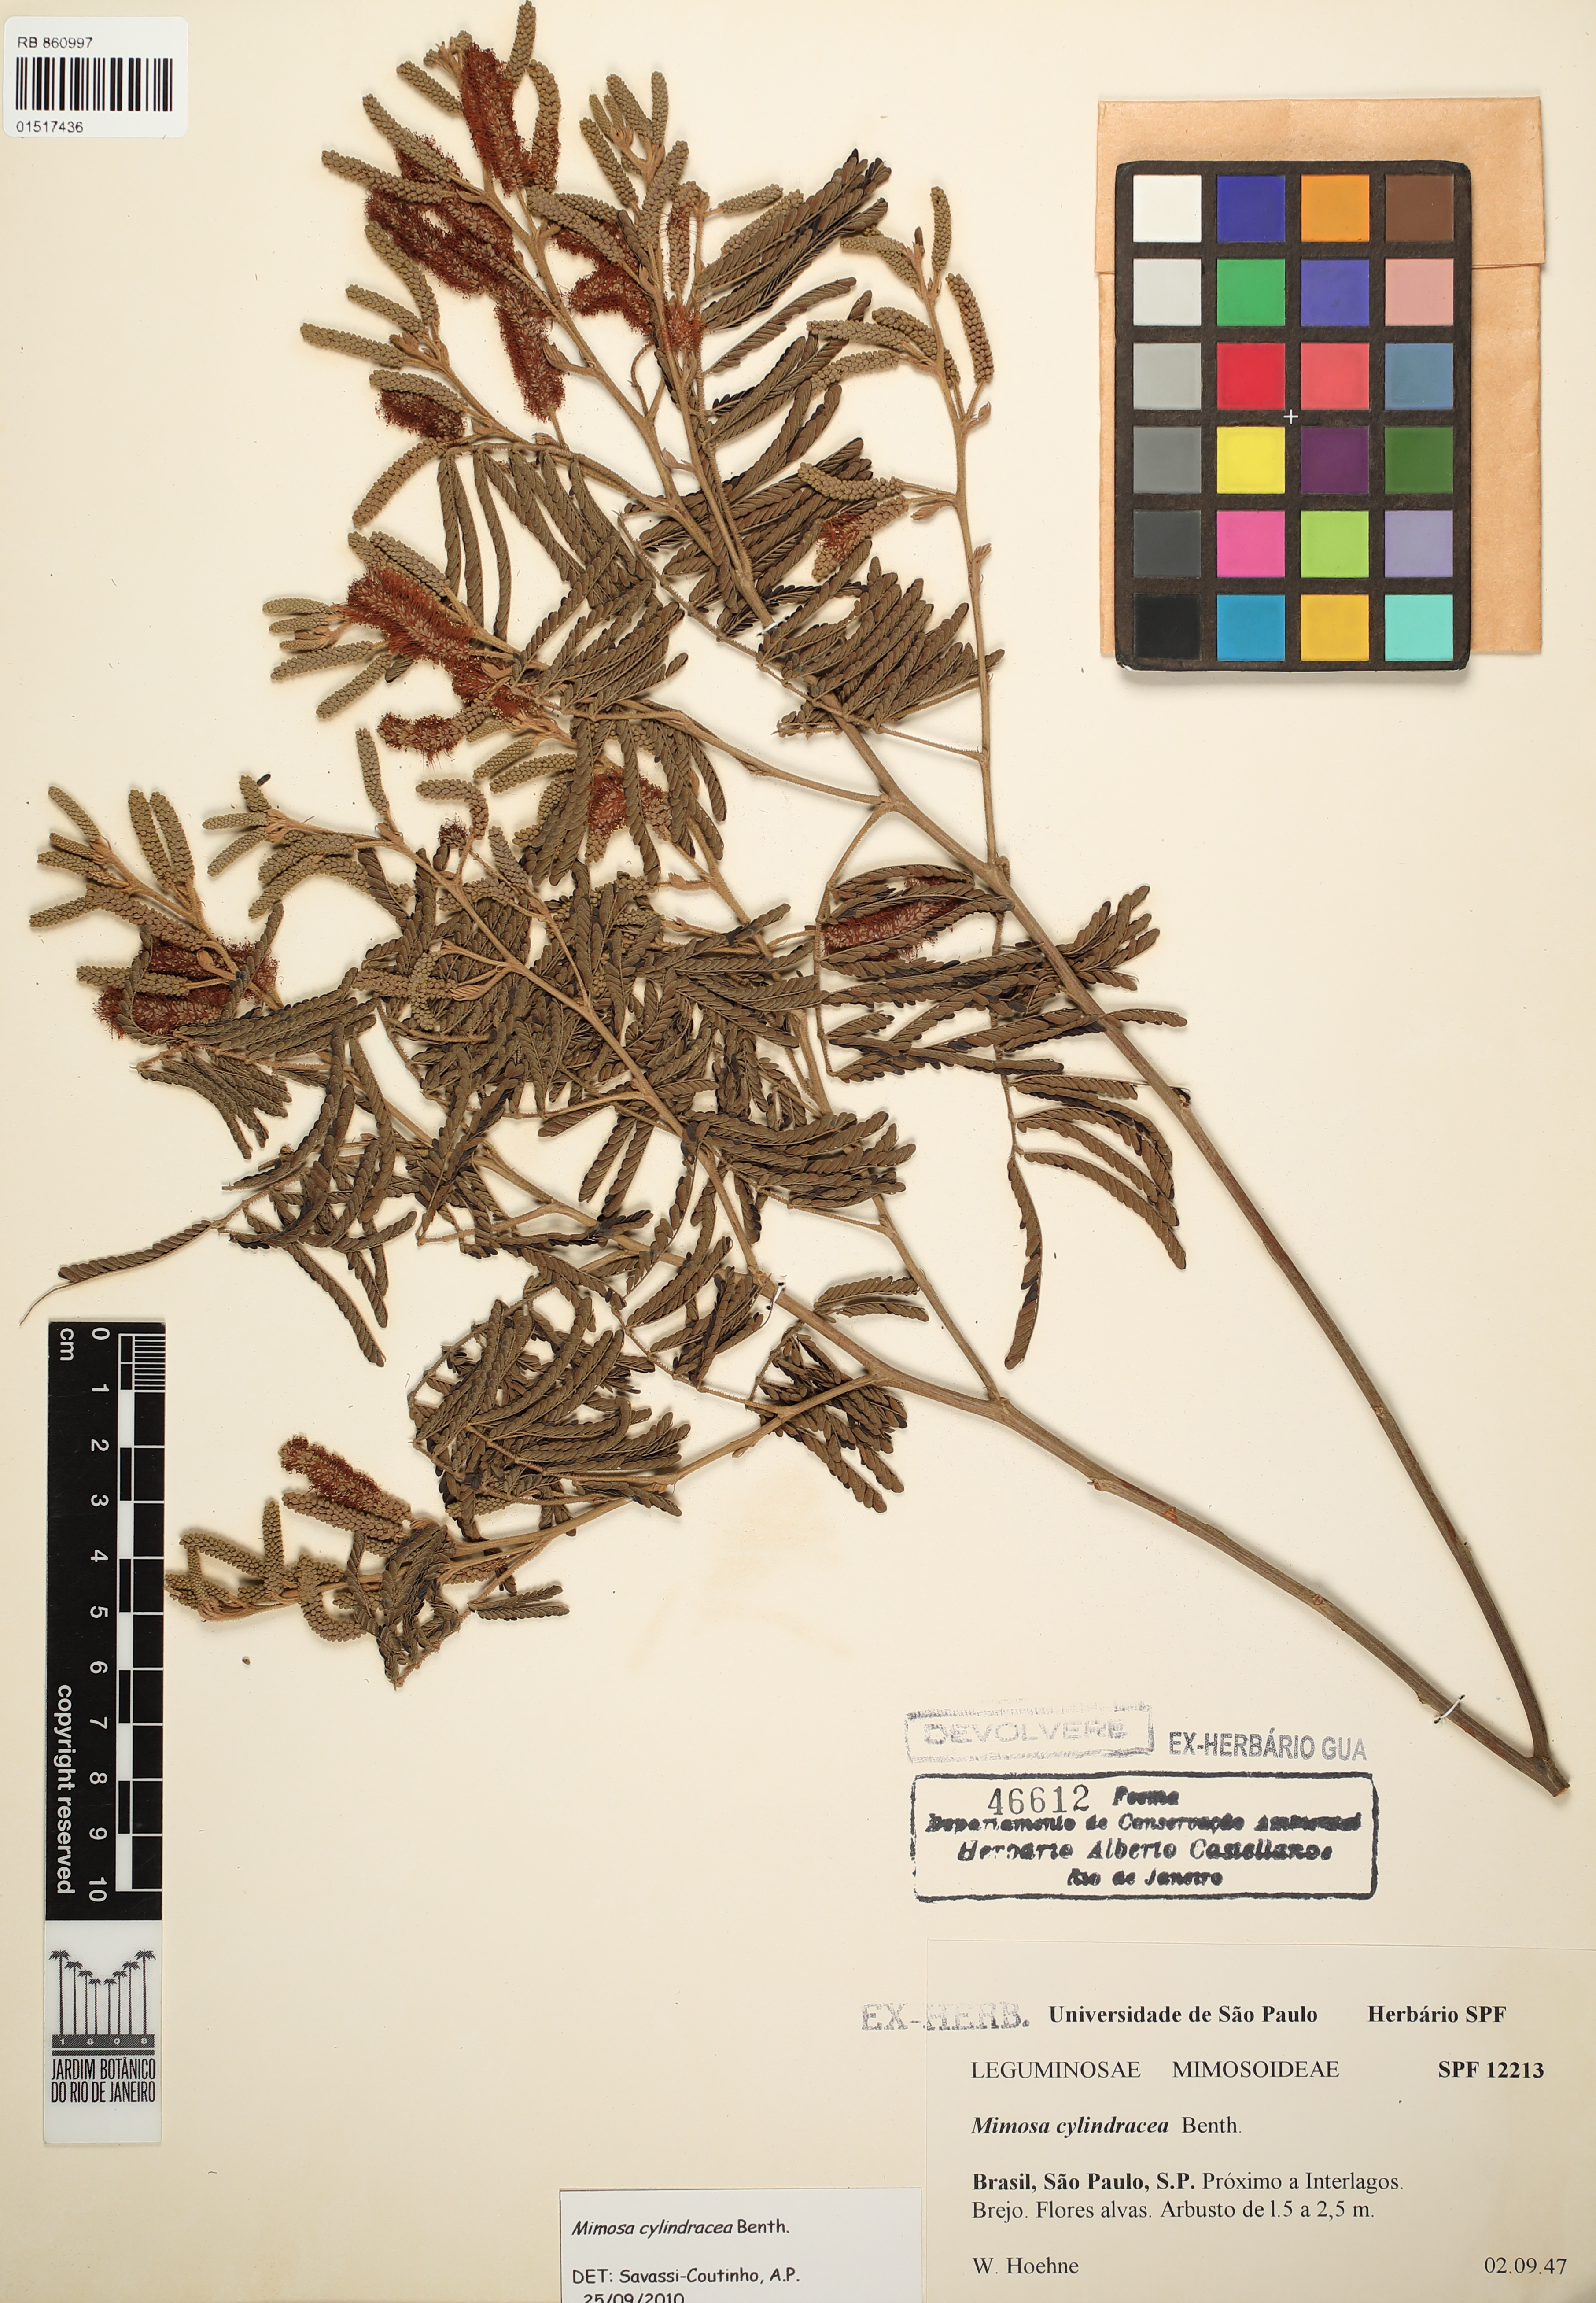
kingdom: Plantae
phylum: Tracheophyta
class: Magnoliopsida
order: Fabales
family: Fabaceae
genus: Mimosa
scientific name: Mimosa cylindracea
